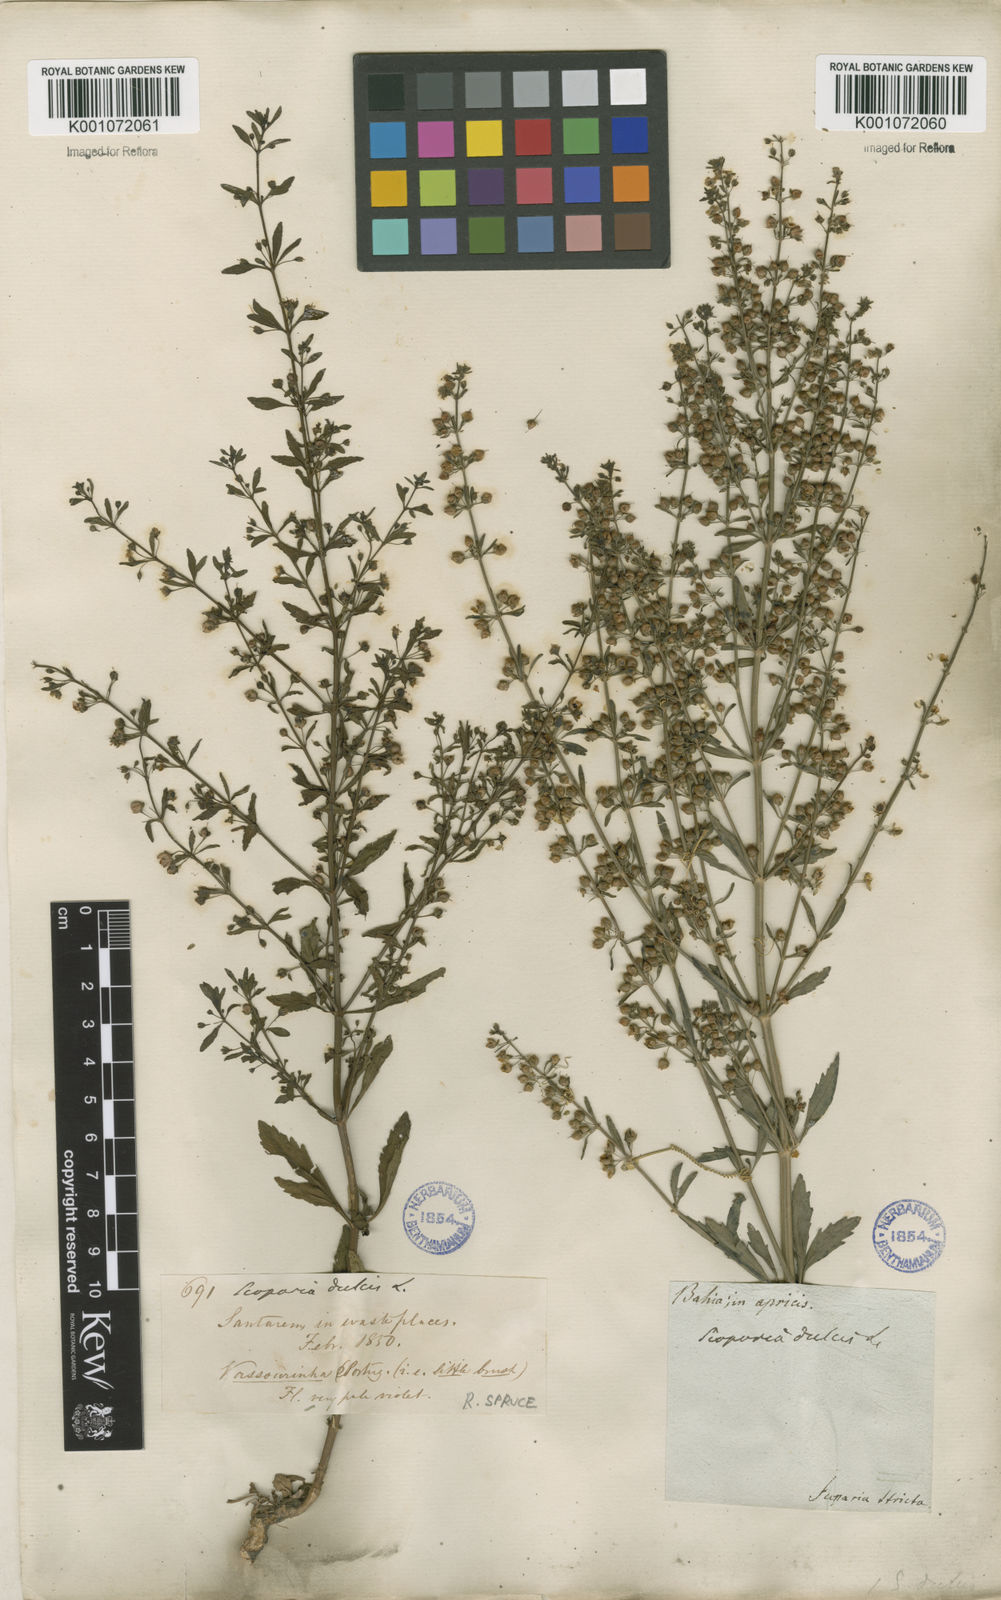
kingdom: Plantae
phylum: Tracheophyta
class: Magnoliopsida
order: Lamiales
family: Plantaginaceae
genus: Scoparia
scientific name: Scoparia dulcis
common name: Scoparia-weed
